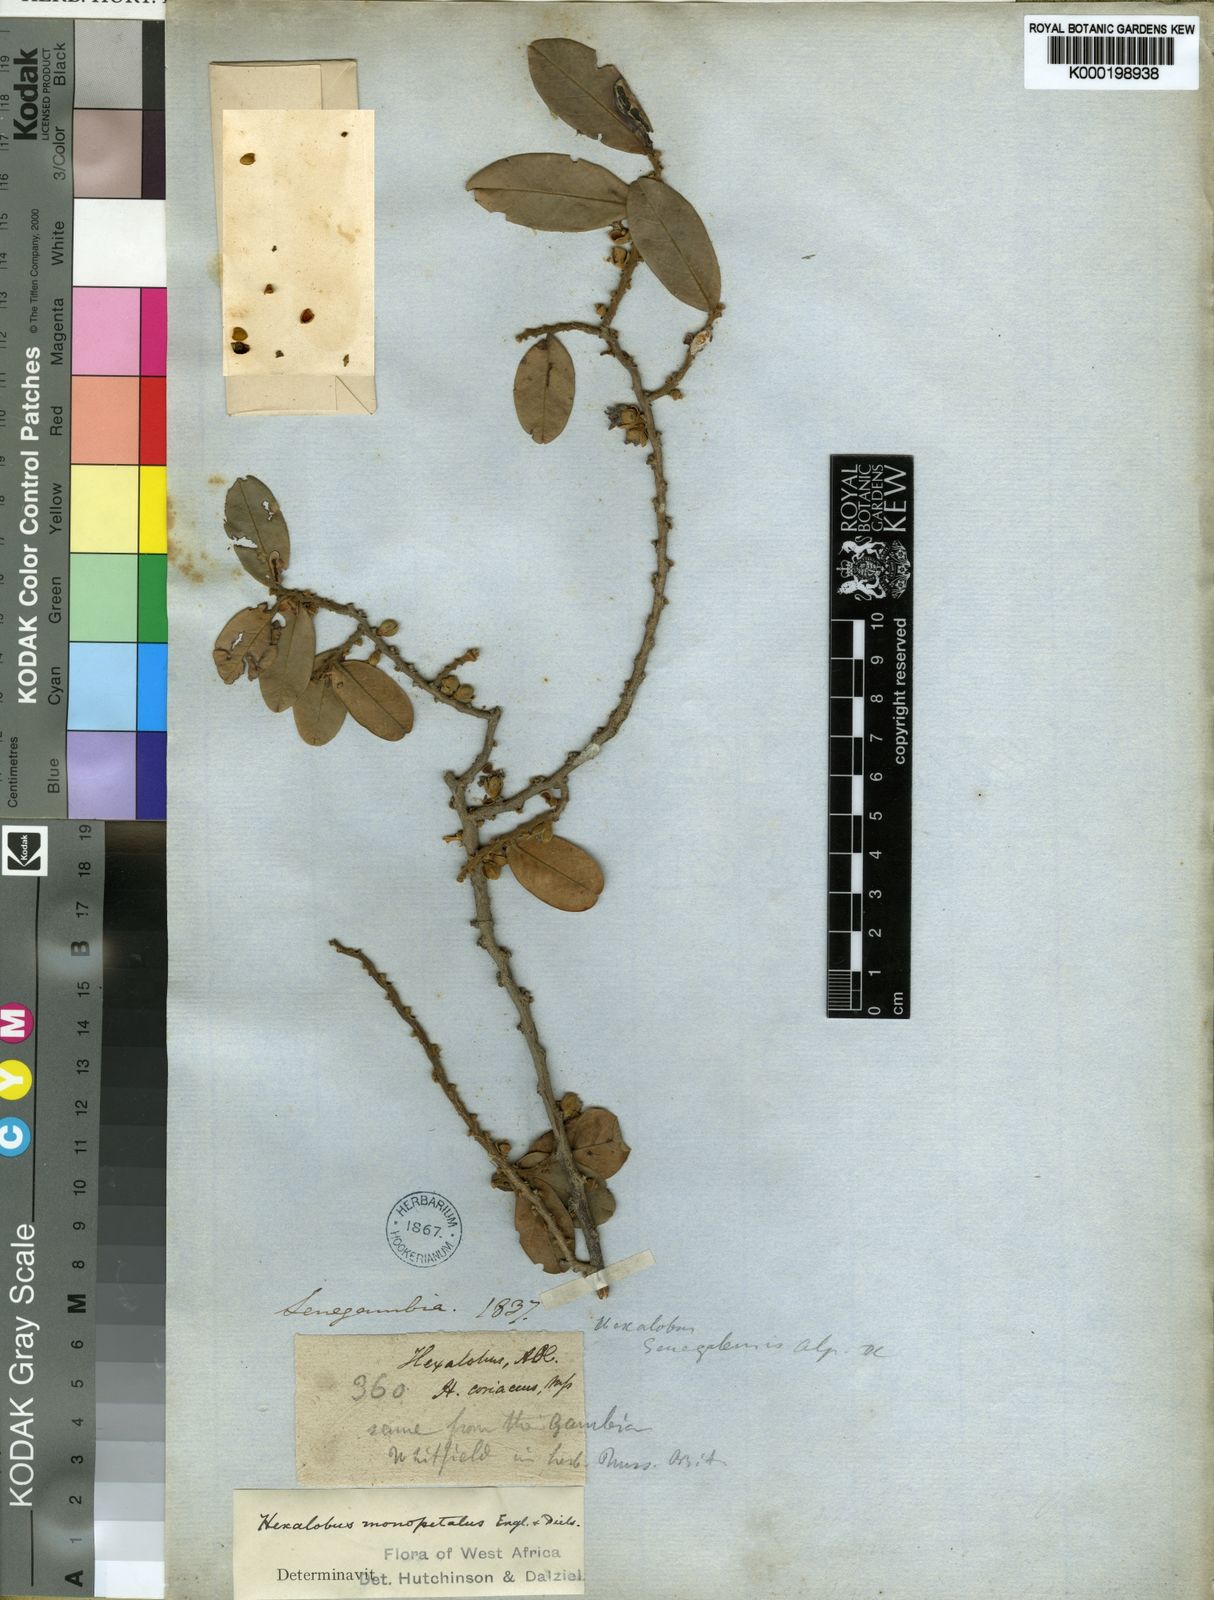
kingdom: Plantae
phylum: Tracheophyta
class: Magnoliopsida
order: Magnoliales
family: Annonaceae
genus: Hexalobus
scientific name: Hexalobus monopetalus
